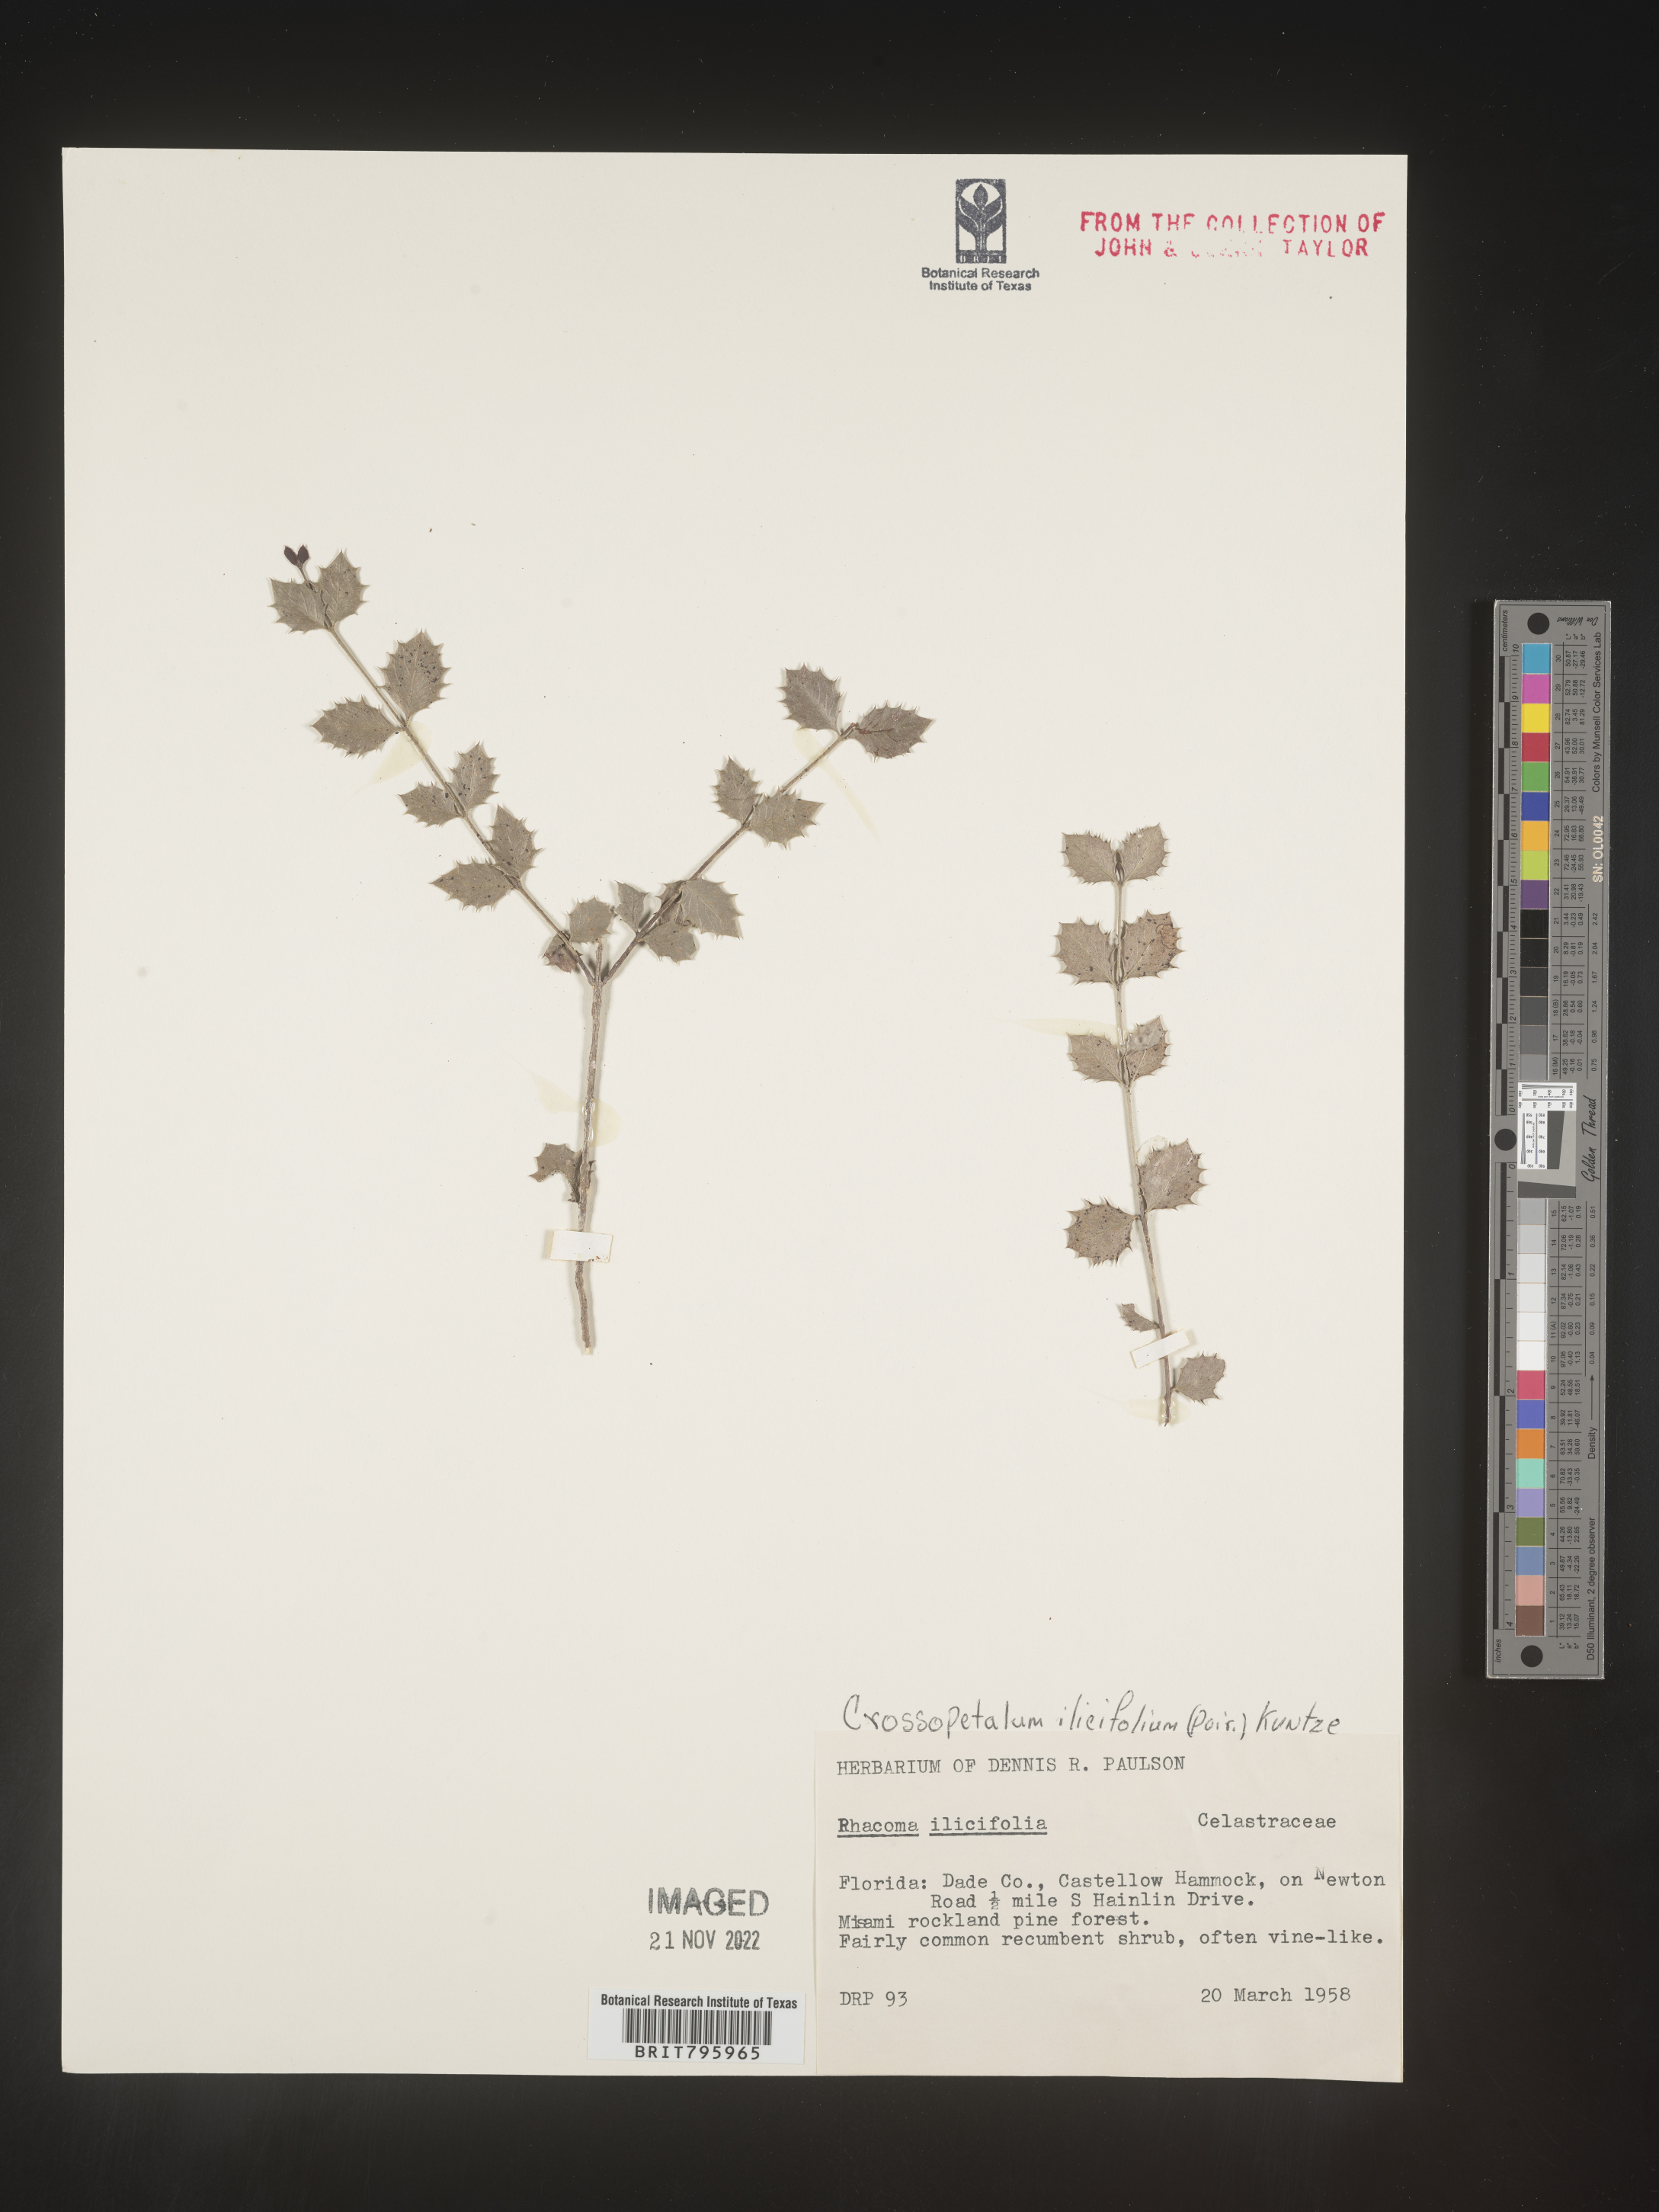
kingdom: Plantae
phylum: Tracheophyta
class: Magnoliopsida
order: Celastrales
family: Celastraceae
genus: Crossopetalum
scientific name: Crossopetalum
